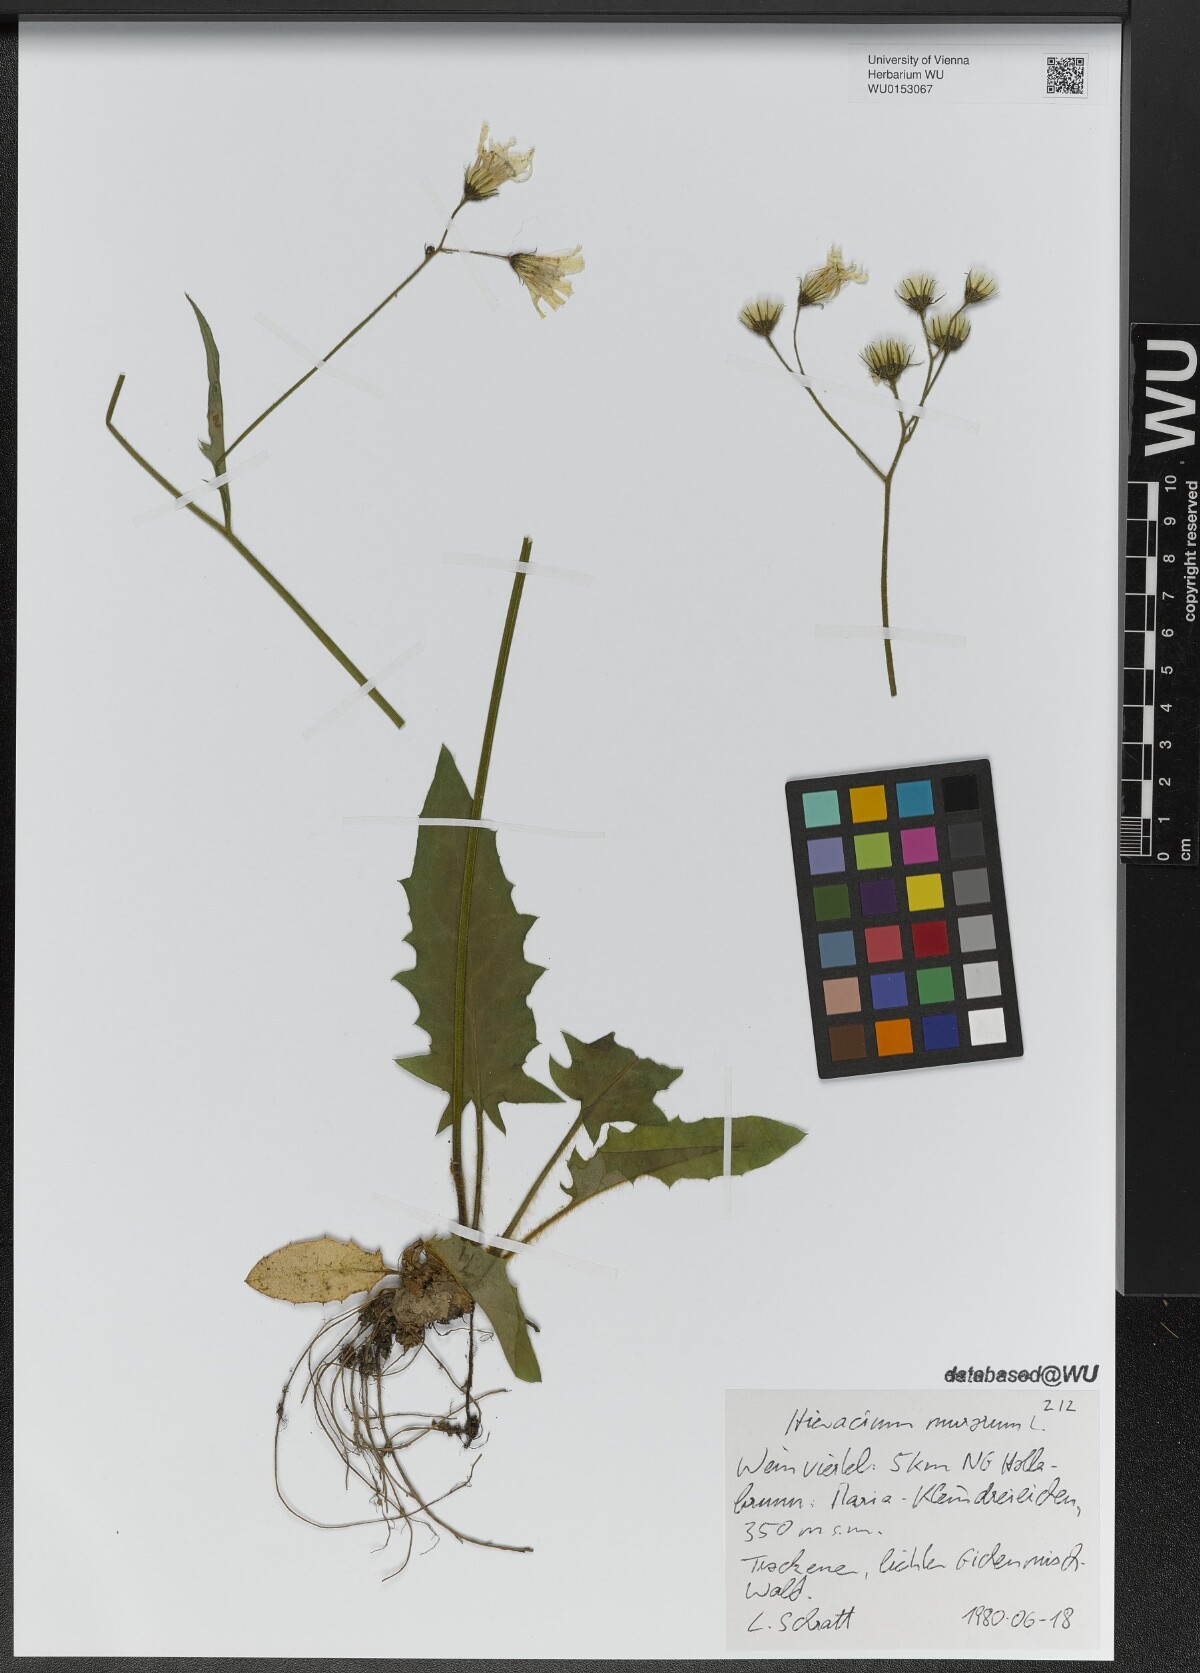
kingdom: Plantae
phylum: Tracheophyta
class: Magnoliopsida
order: Asterales
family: Asteraceae
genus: Hieracium
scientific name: Hieracium murorum
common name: Wall hawkweed
